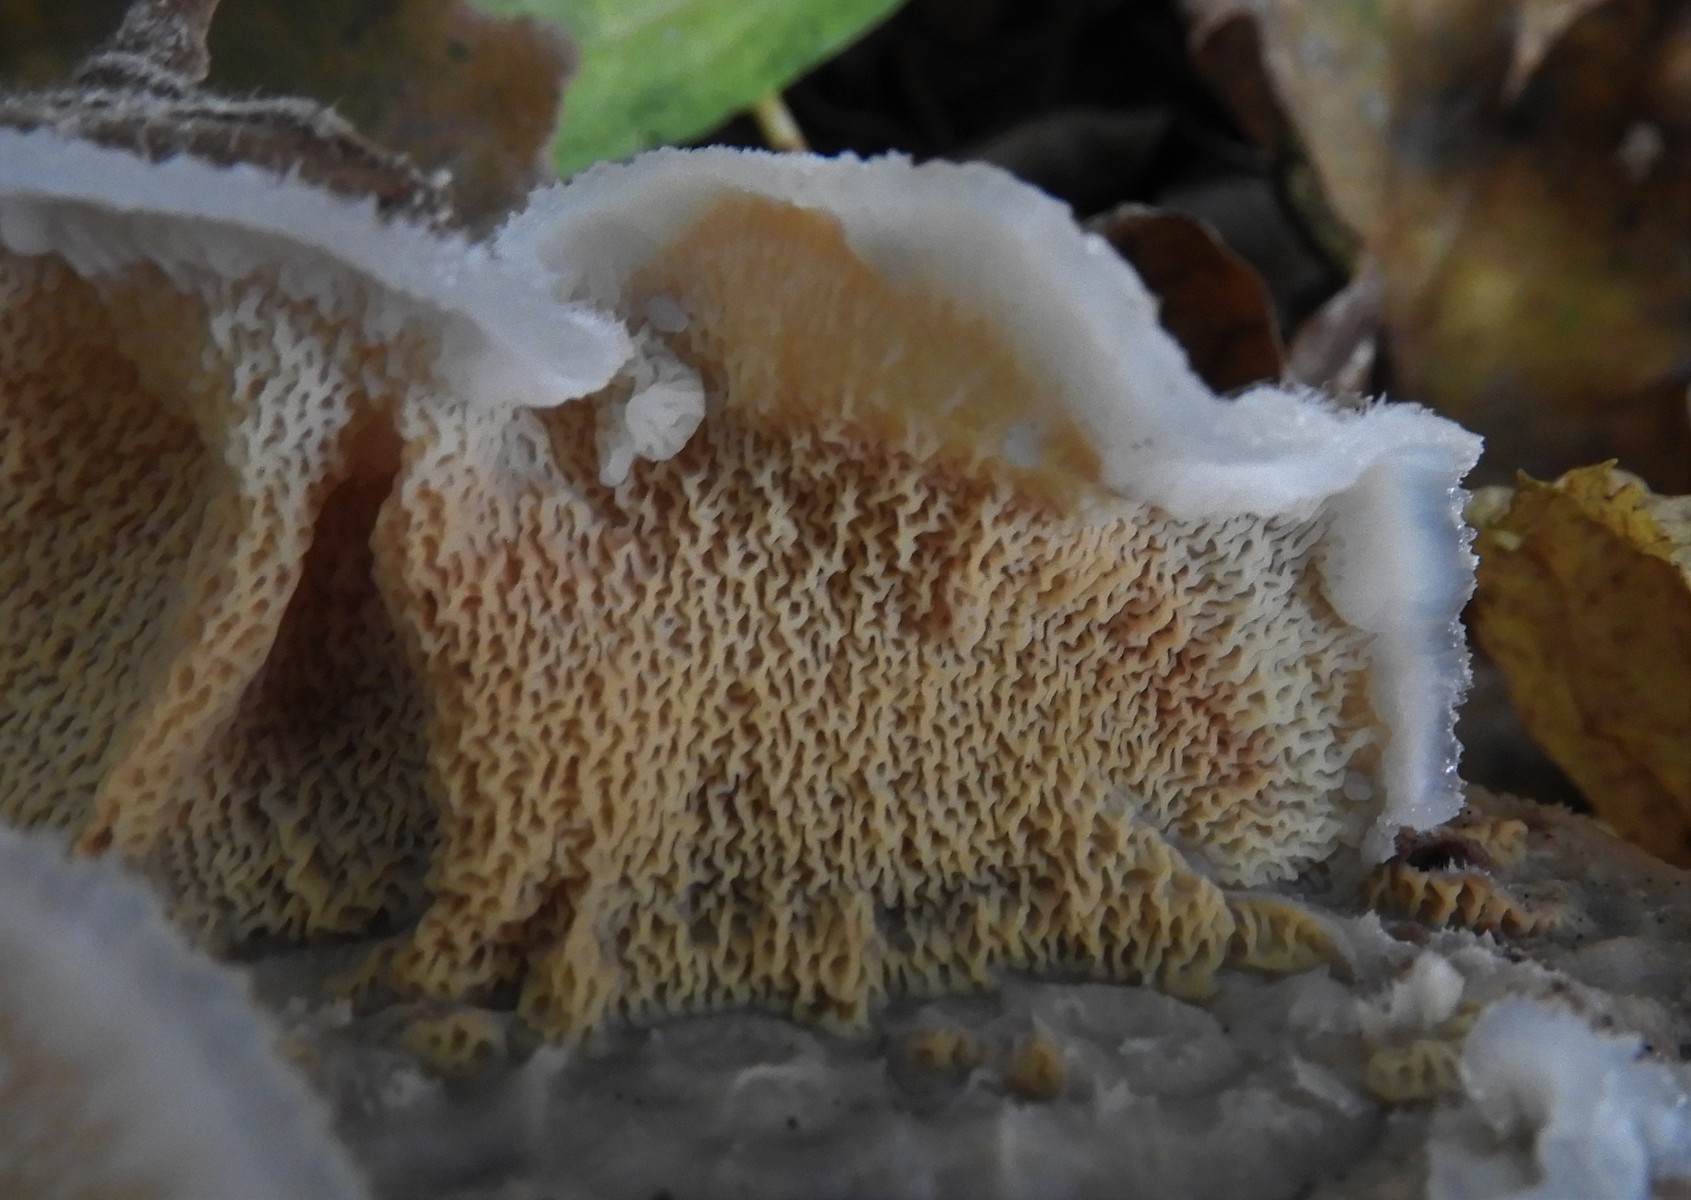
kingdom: Fungi
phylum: Basidiomycota
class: Agaricomycetes
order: Polyporales
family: Meruliaceae
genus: Phlebia
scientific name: Phlebia tremellosa
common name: bævrende åresvamp
